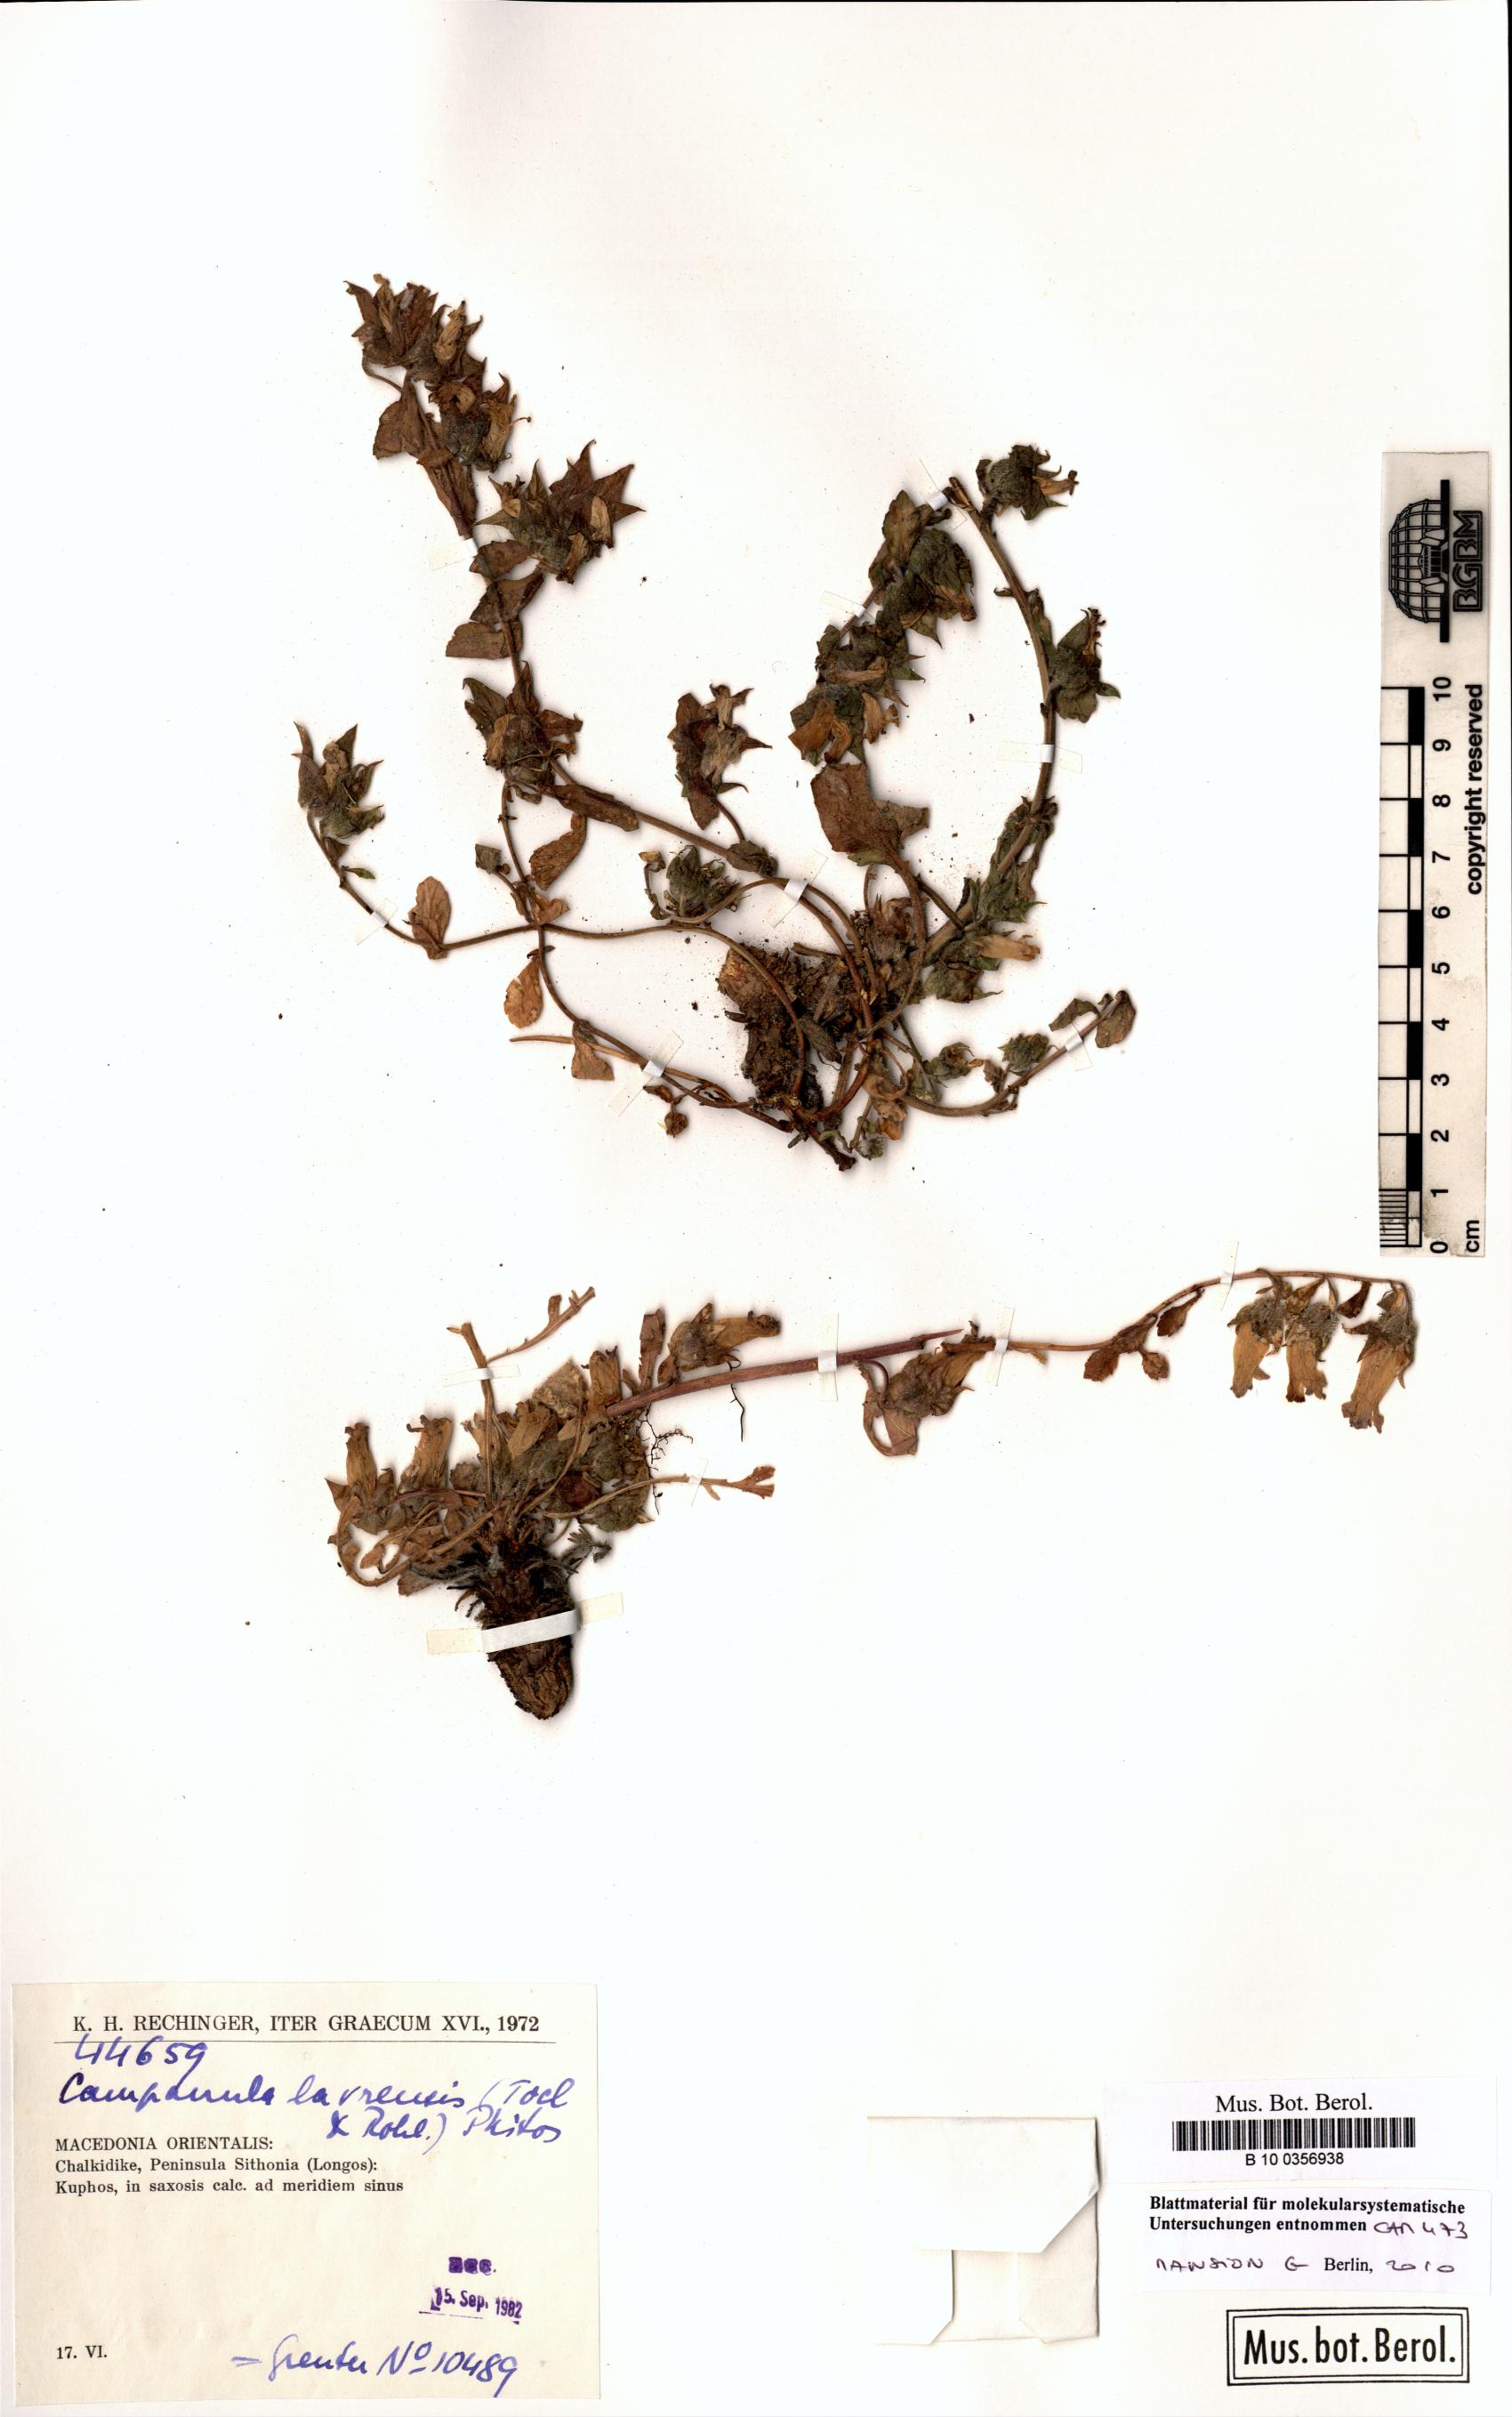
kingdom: Plantae
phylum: Tracheophyta
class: Magnoliopsida
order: Asterales
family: Campanulaceae
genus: Campanula
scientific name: Campanula lavrensis
